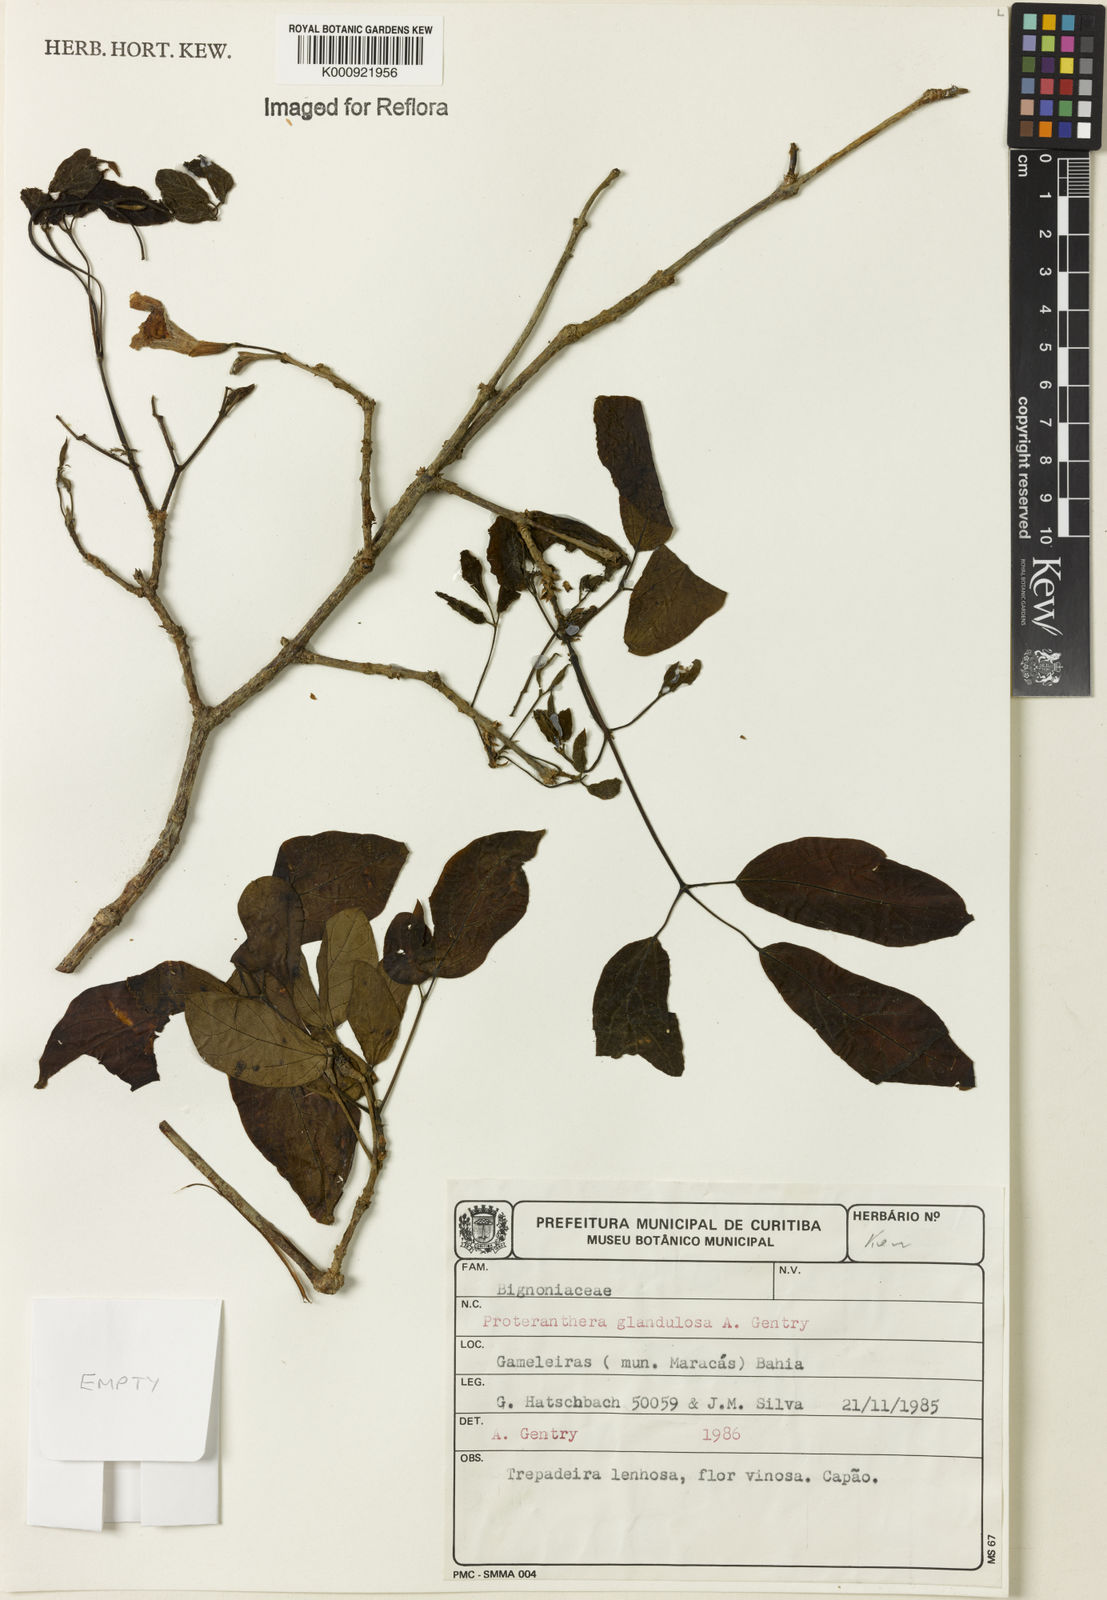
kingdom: Plantae
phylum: Tracheophyta
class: Magnoliopsida
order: Lamiales
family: Bignoniaceae
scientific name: Bignoniaceae
